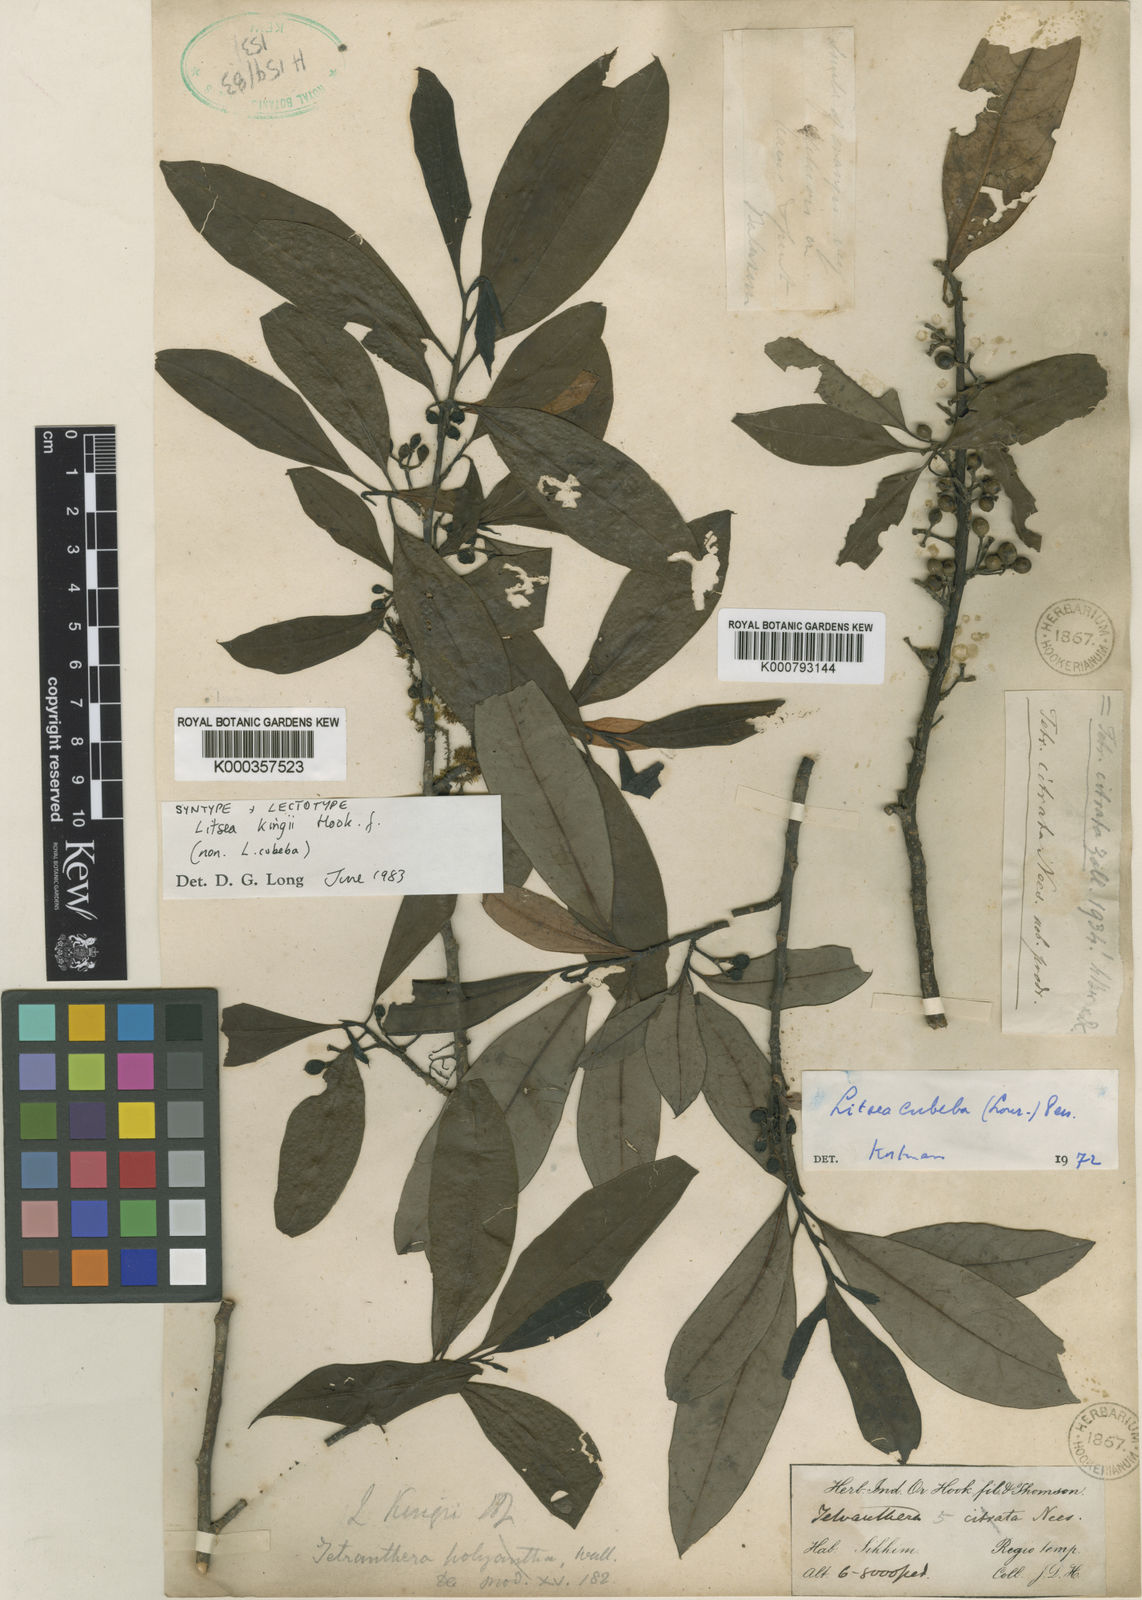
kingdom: Plantae
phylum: Tracheophyta
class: Magnoliopsida
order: Laurales
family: Lauraceae
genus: Litsea
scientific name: Litsea kingii
